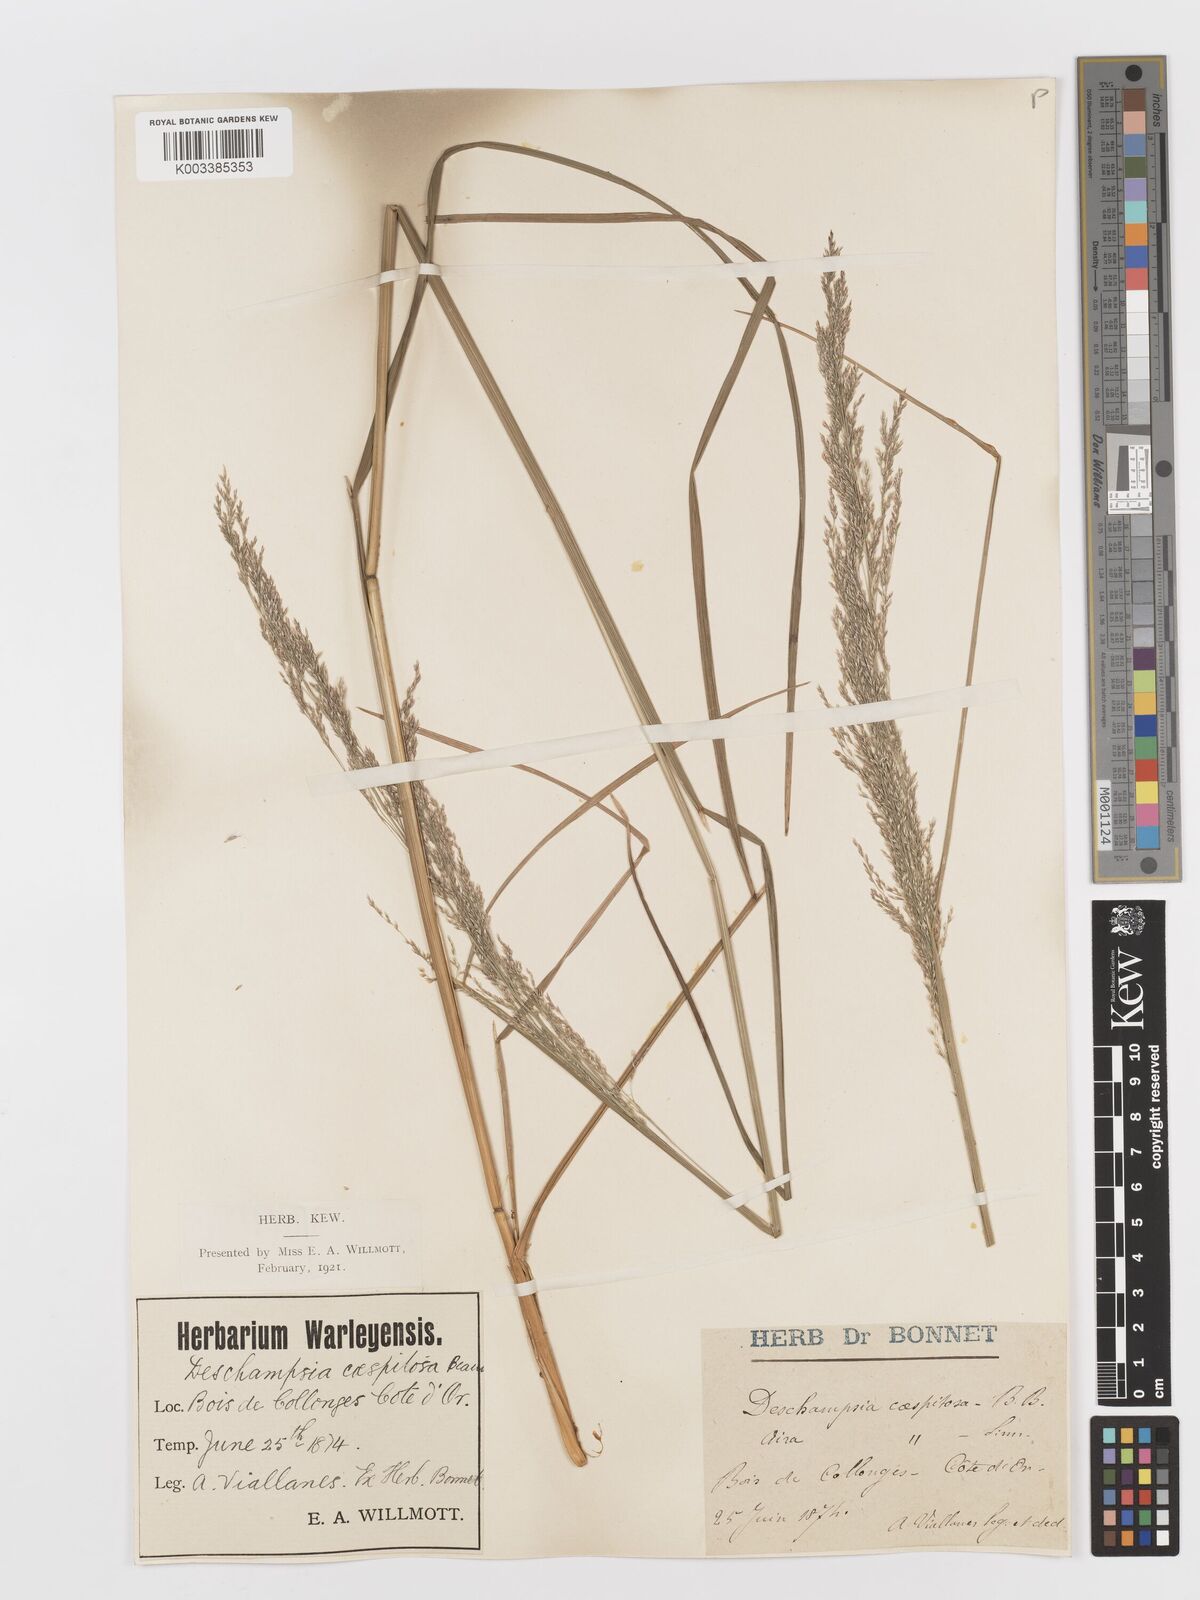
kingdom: Plantae
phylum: Tracheophyta
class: Liliopsida
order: Poales
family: Poaceae
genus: Deschampsia
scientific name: Deschampsia cespitosa
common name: Tufted hair-grass
